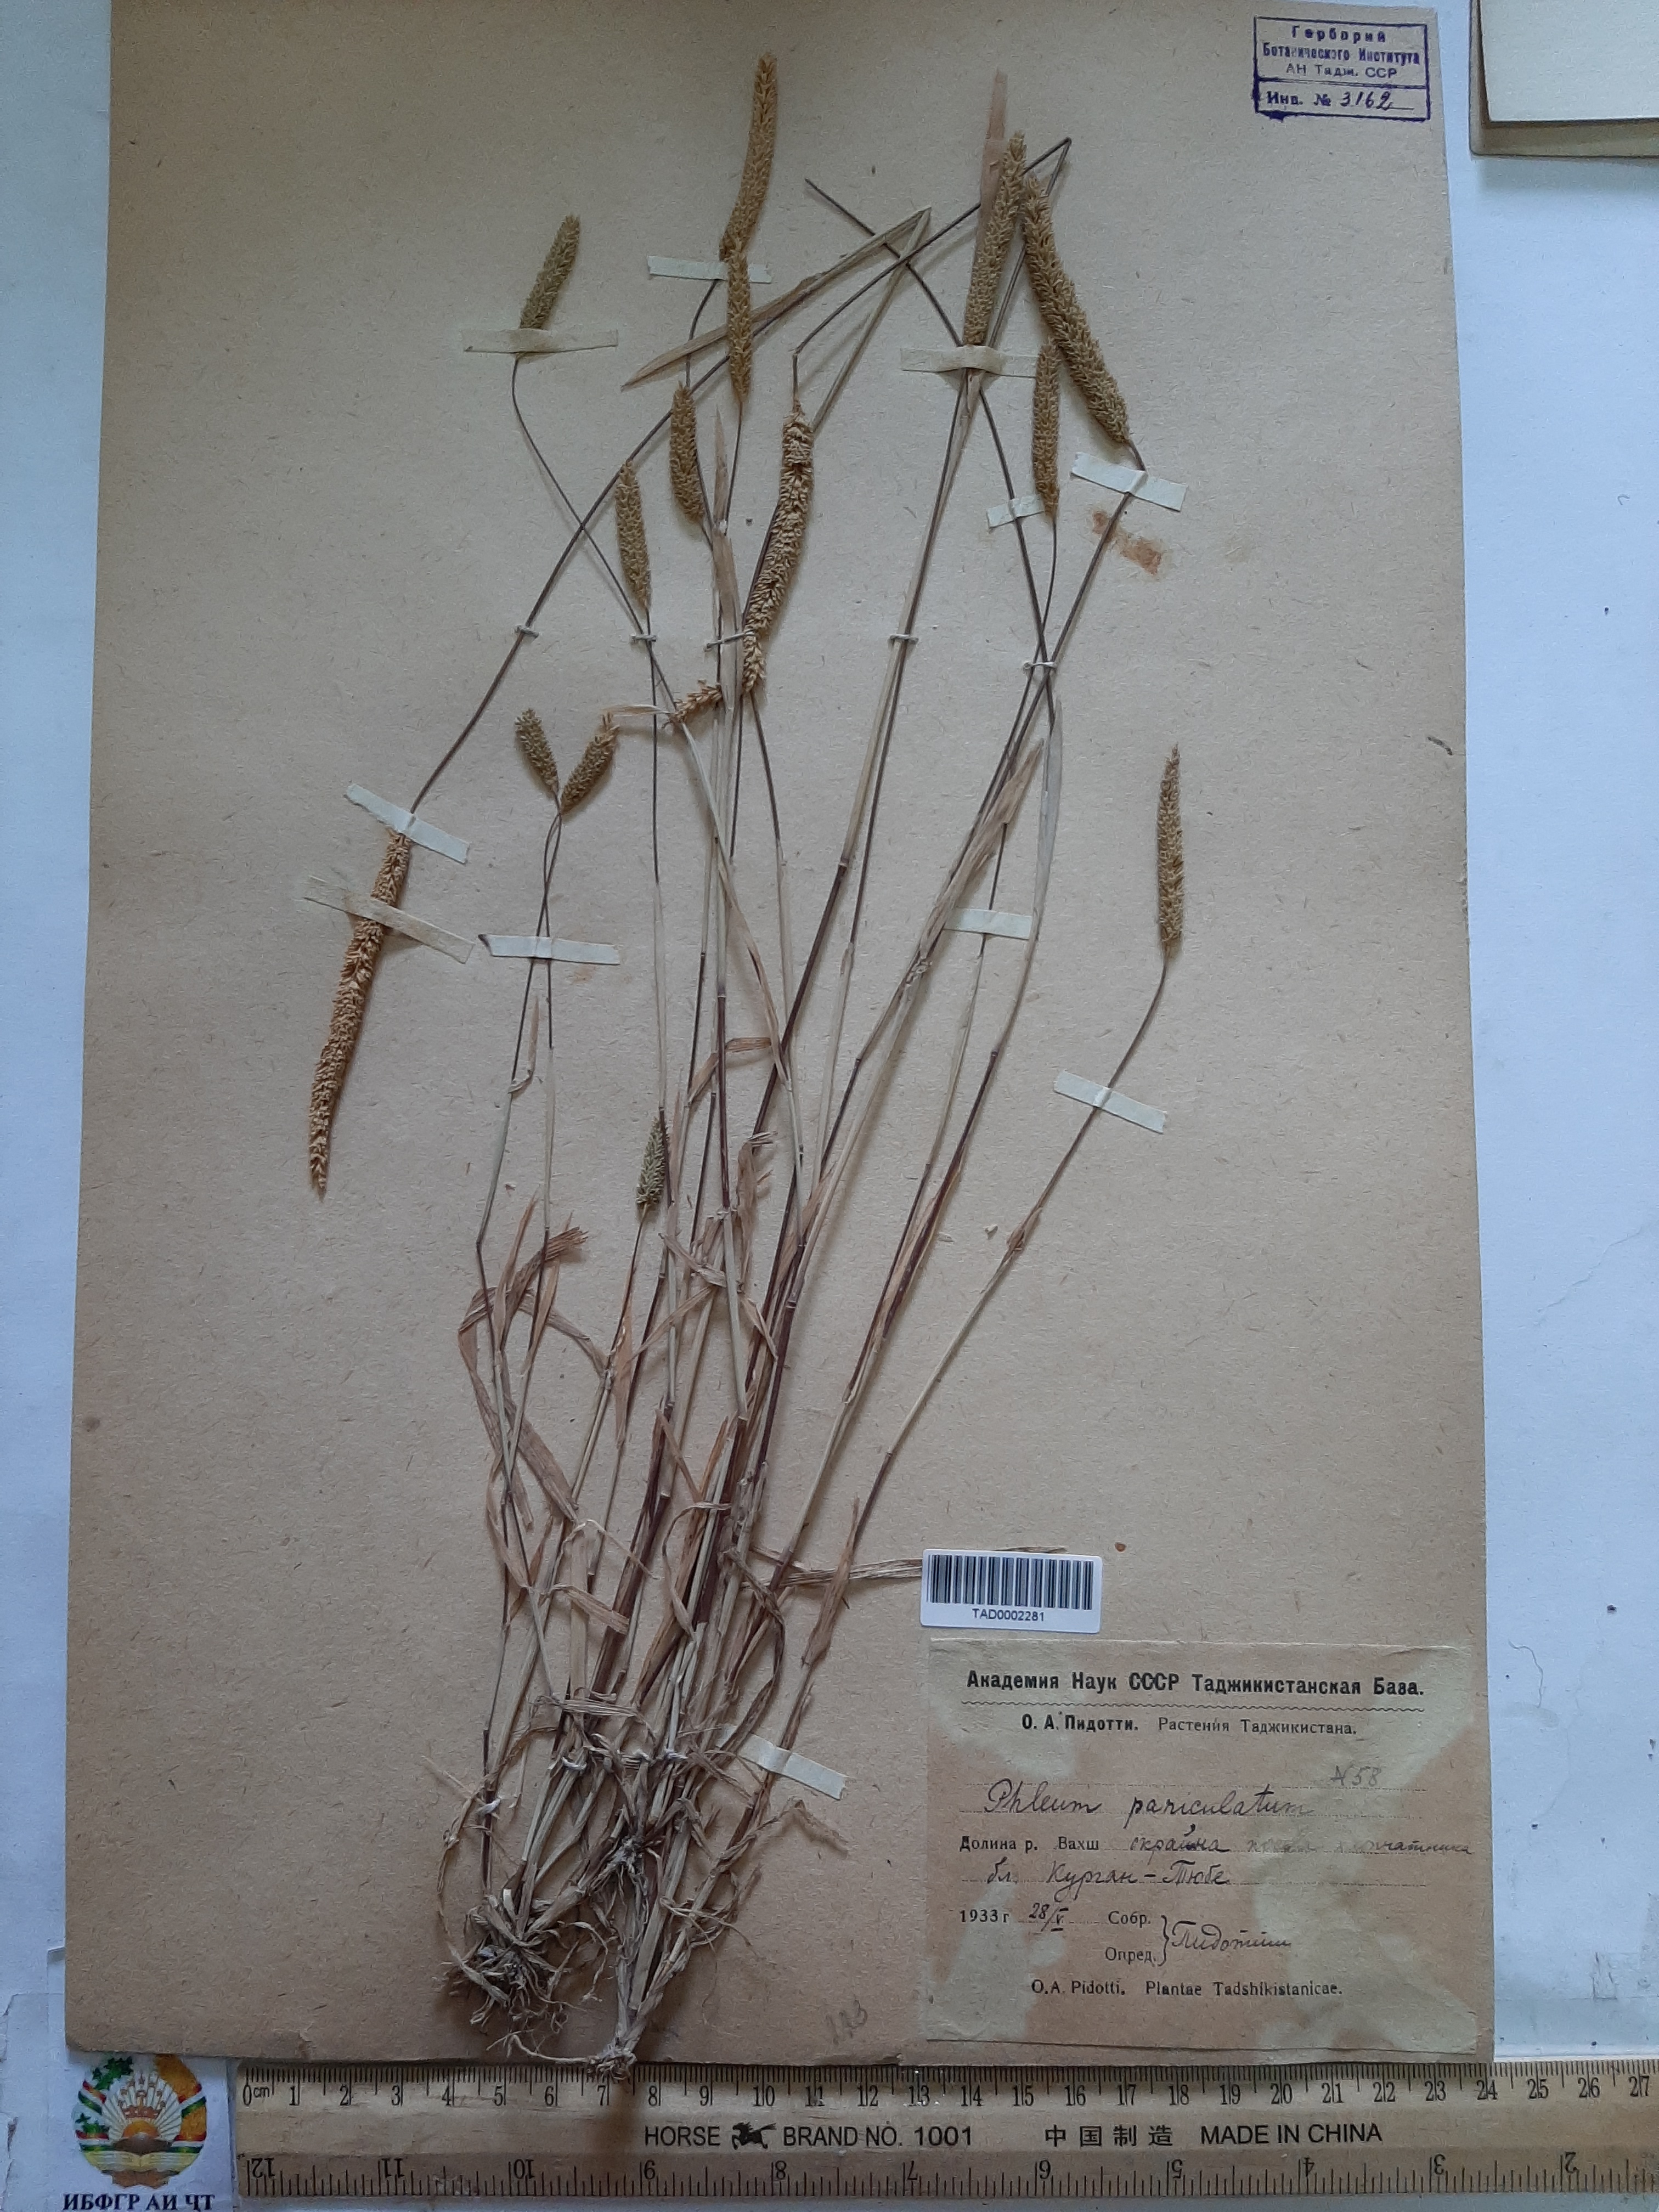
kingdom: Plantae
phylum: Tracheophyta
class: Liliopsida
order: Poales
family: Poaceae
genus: Phleum
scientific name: Phleum paniculatum
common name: British timothy
